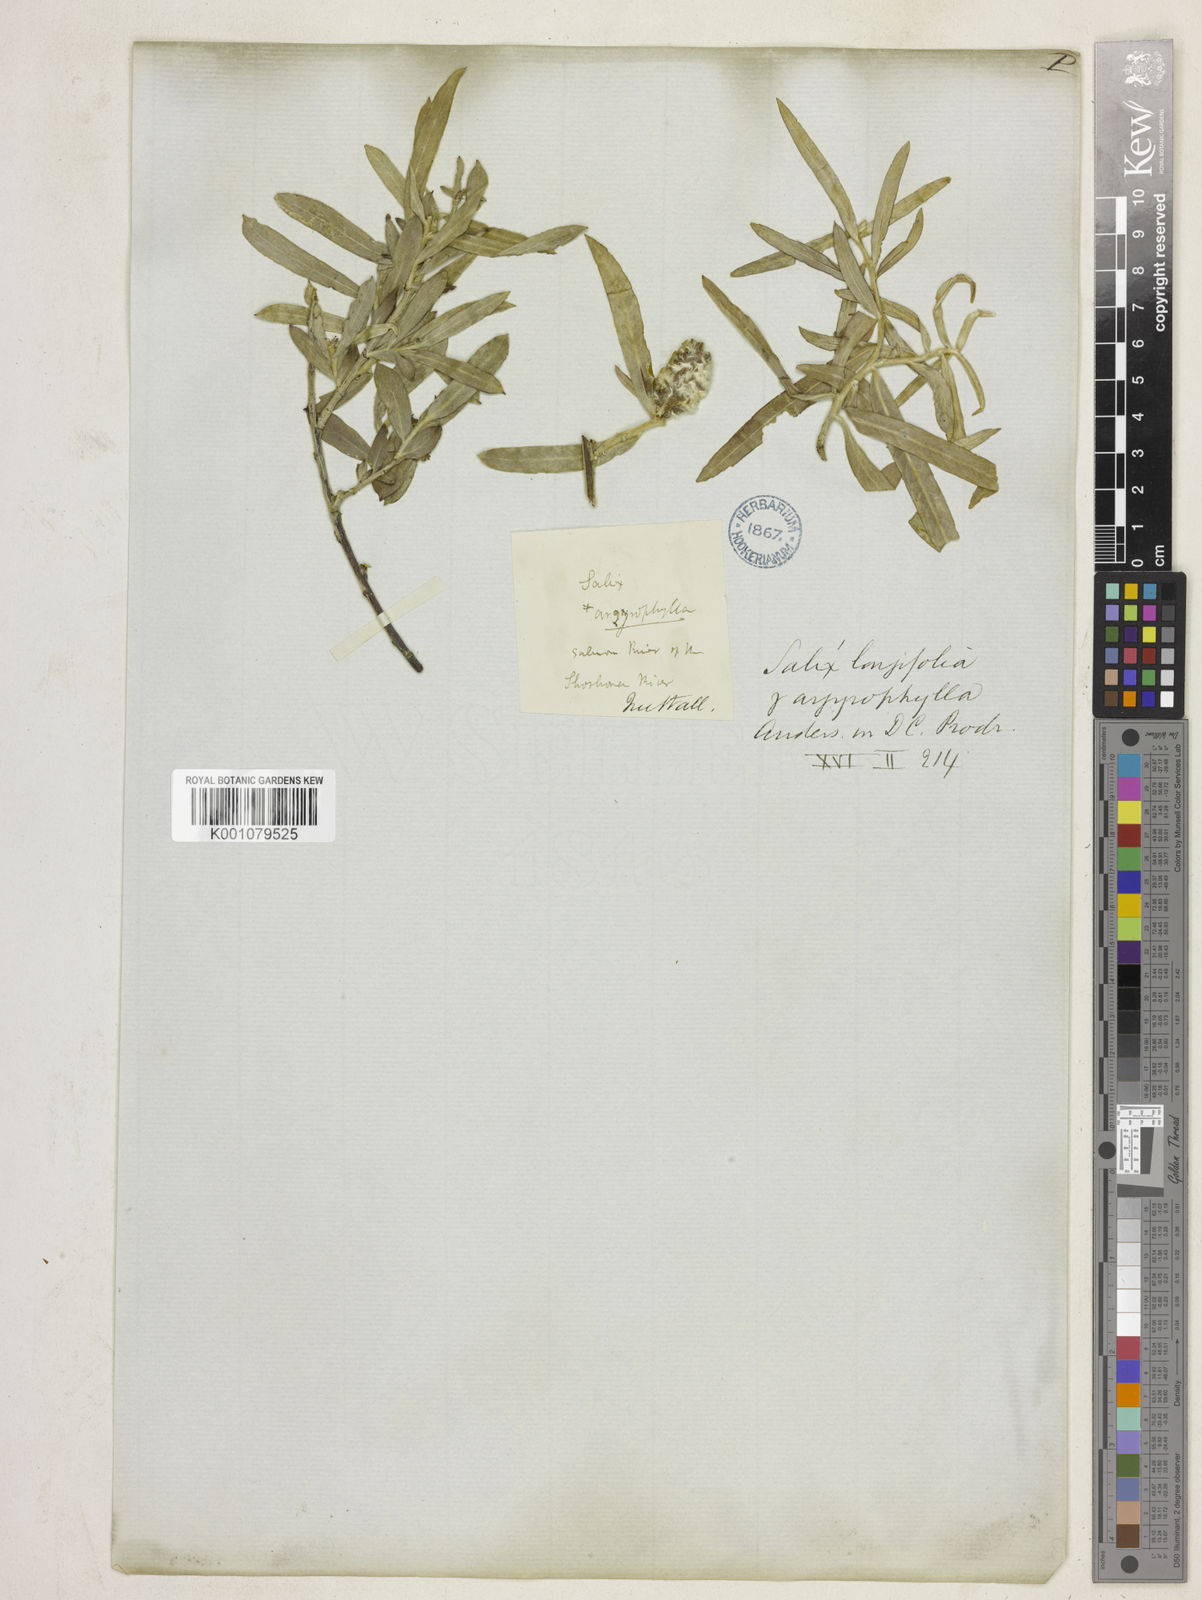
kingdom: Plantae
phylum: Tracheophyta
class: Magnoliopsida
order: Malpighiales
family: Salicaceae
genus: Salix
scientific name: Salix exigua
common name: Coyote willow
